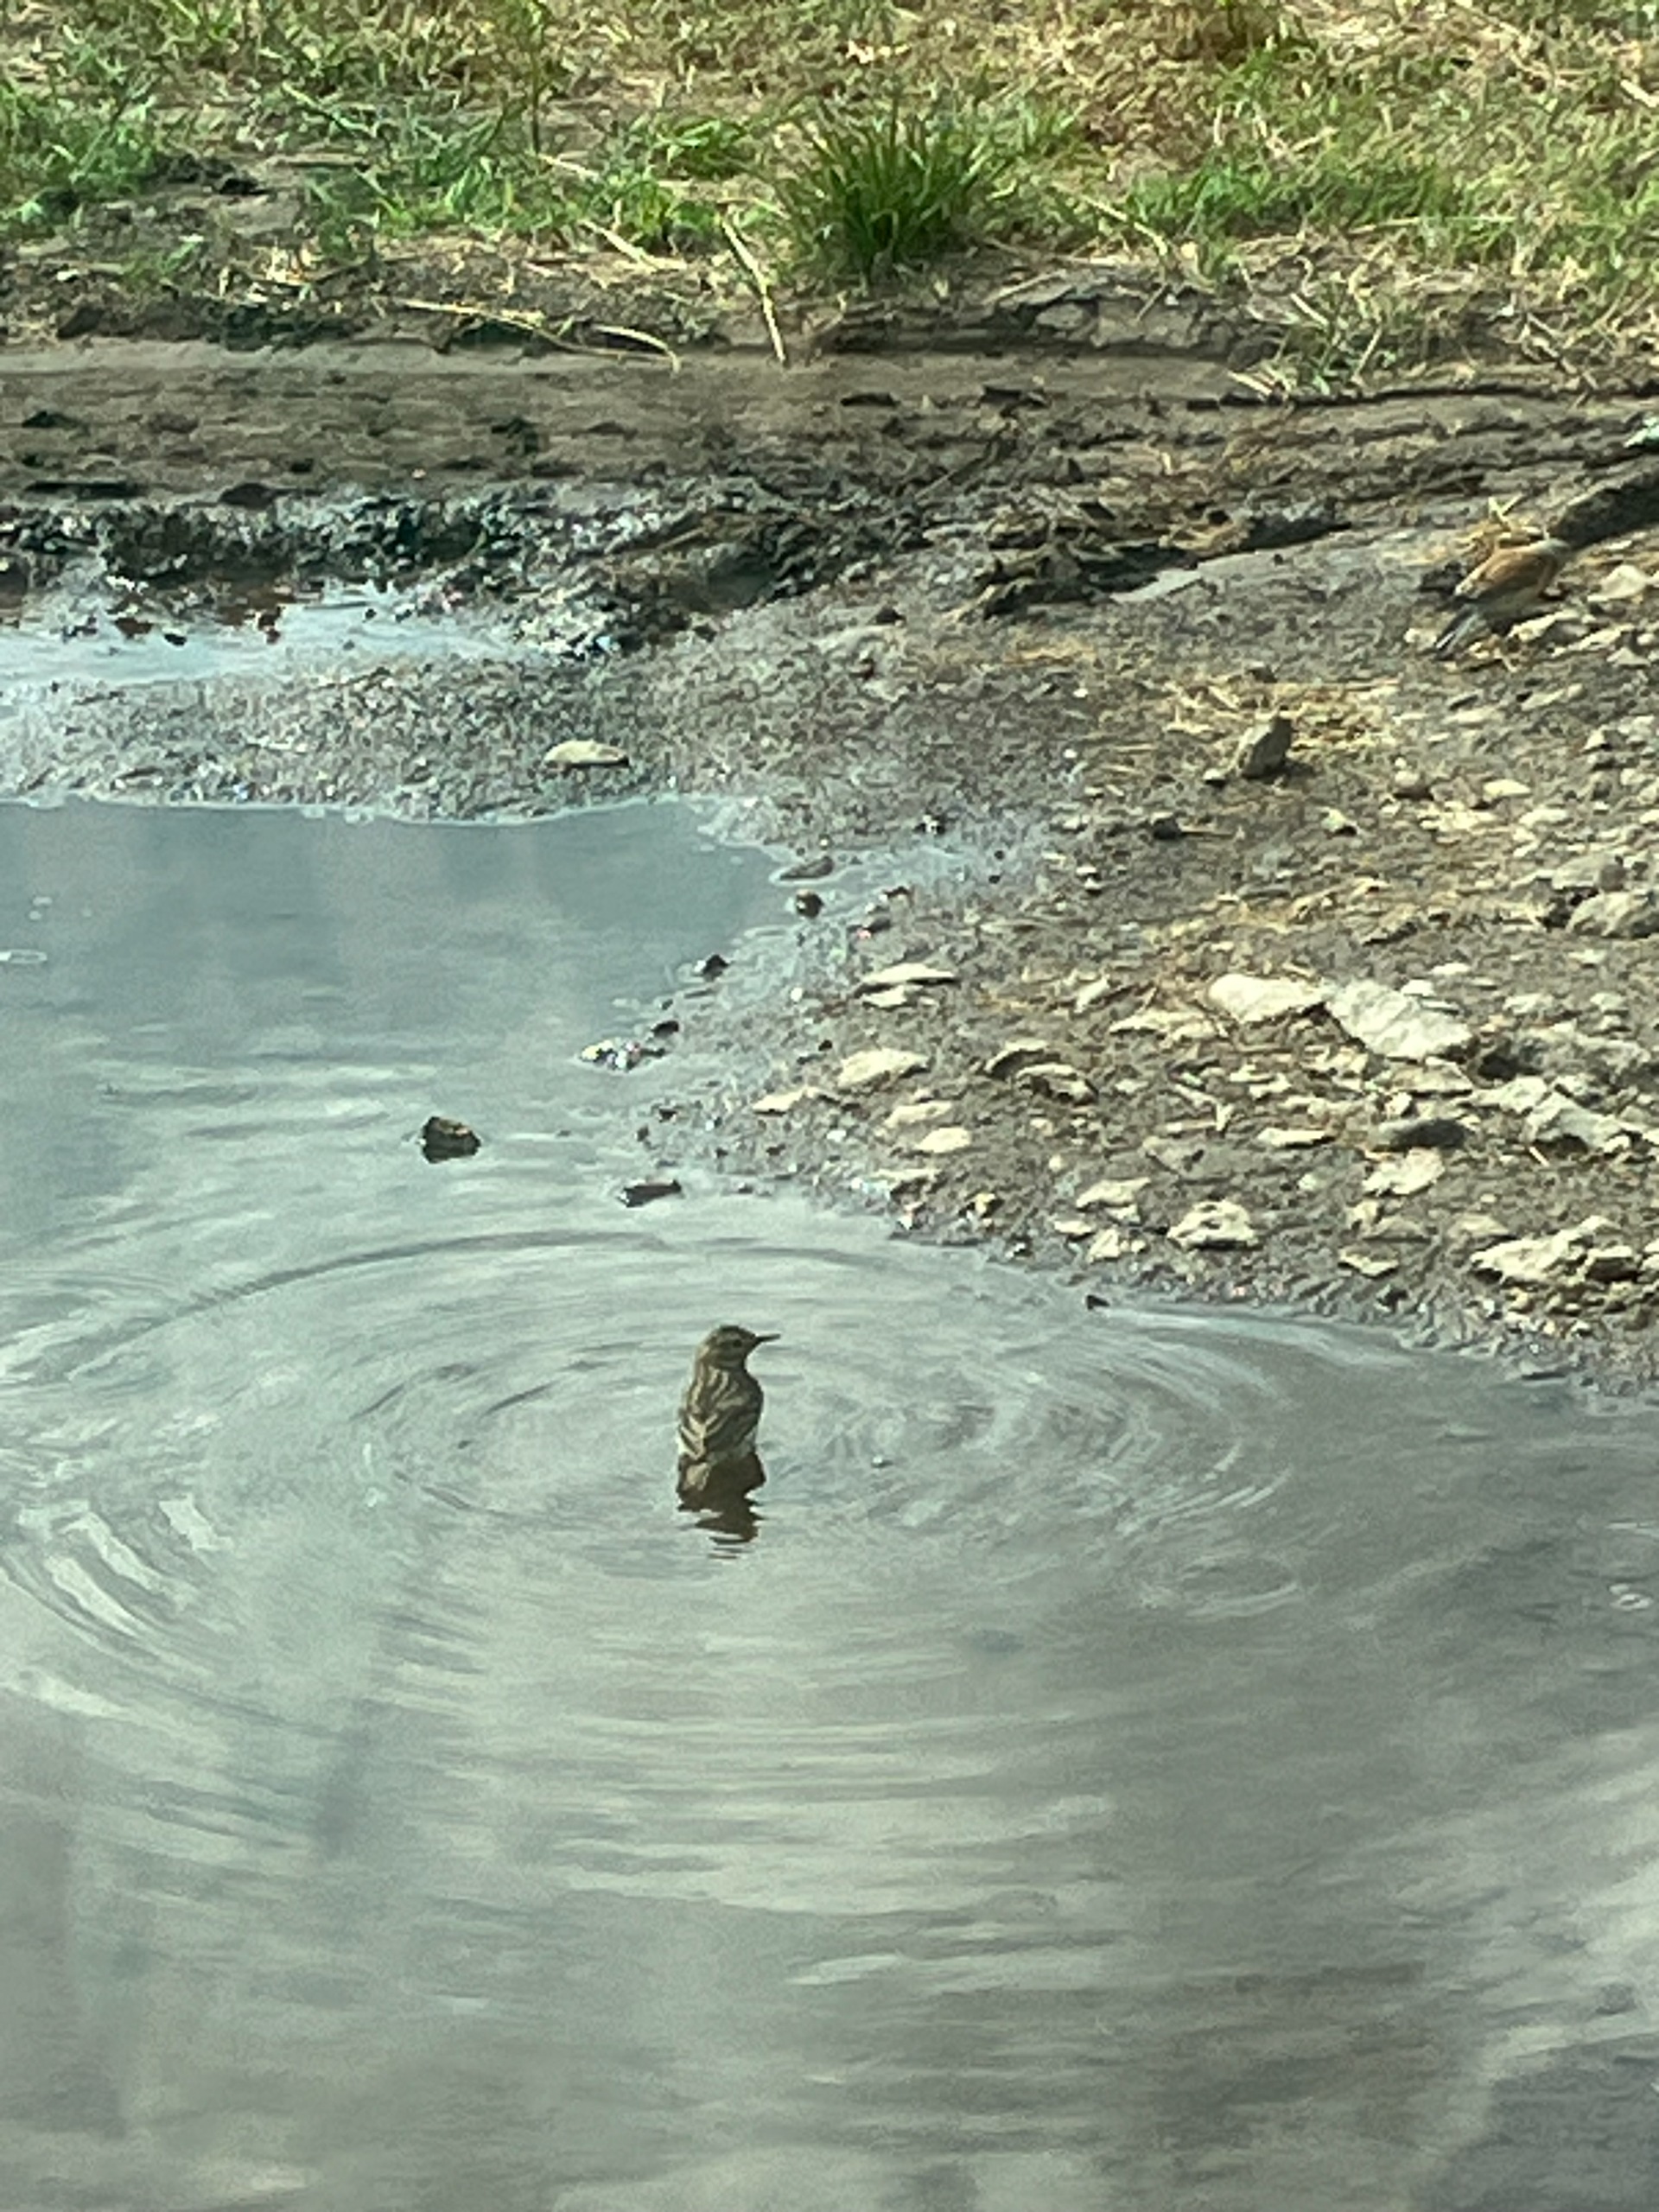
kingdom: Animalia
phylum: Chordata
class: Aves
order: Passeriformes
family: Motacillidae
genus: Anthus
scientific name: Anthus pratensis
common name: Engpiber
